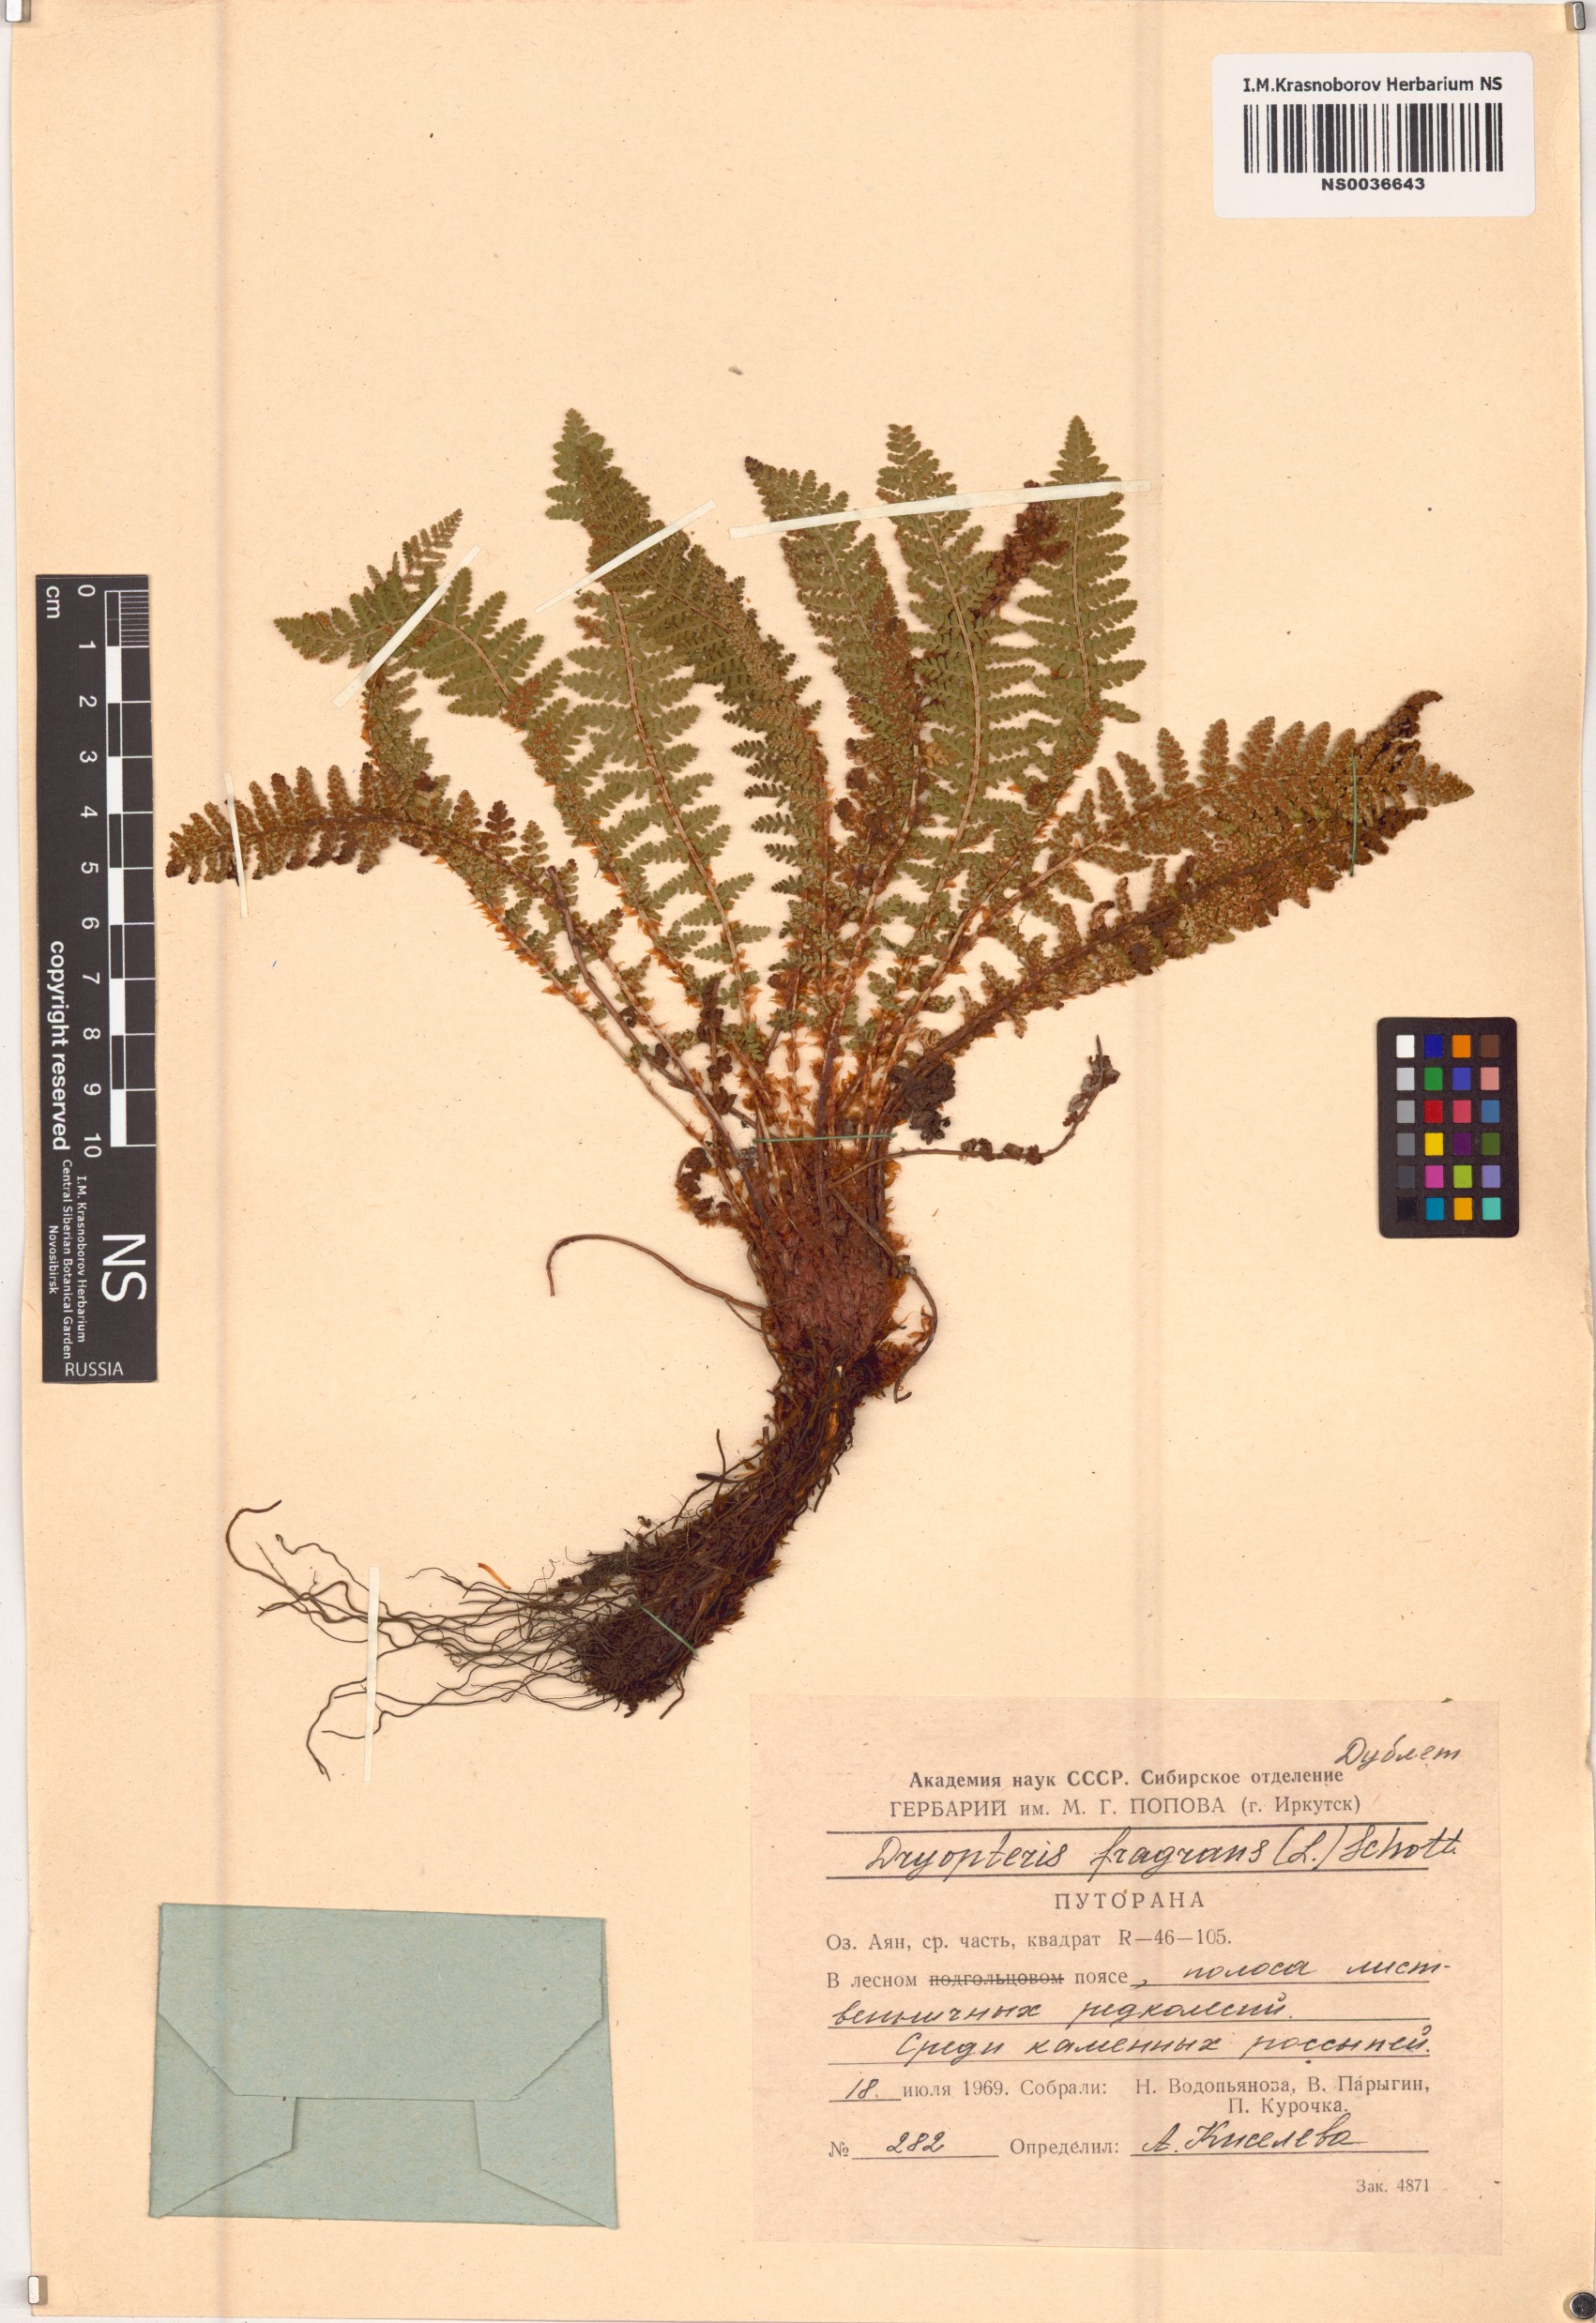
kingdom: Plantae
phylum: Tracheophyta
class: Polypodiopsida
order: Polypodiales
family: Dryopteridaceae
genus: Dryopteris
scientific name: Dryopteris fragrans
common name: Fragrant wood fern
